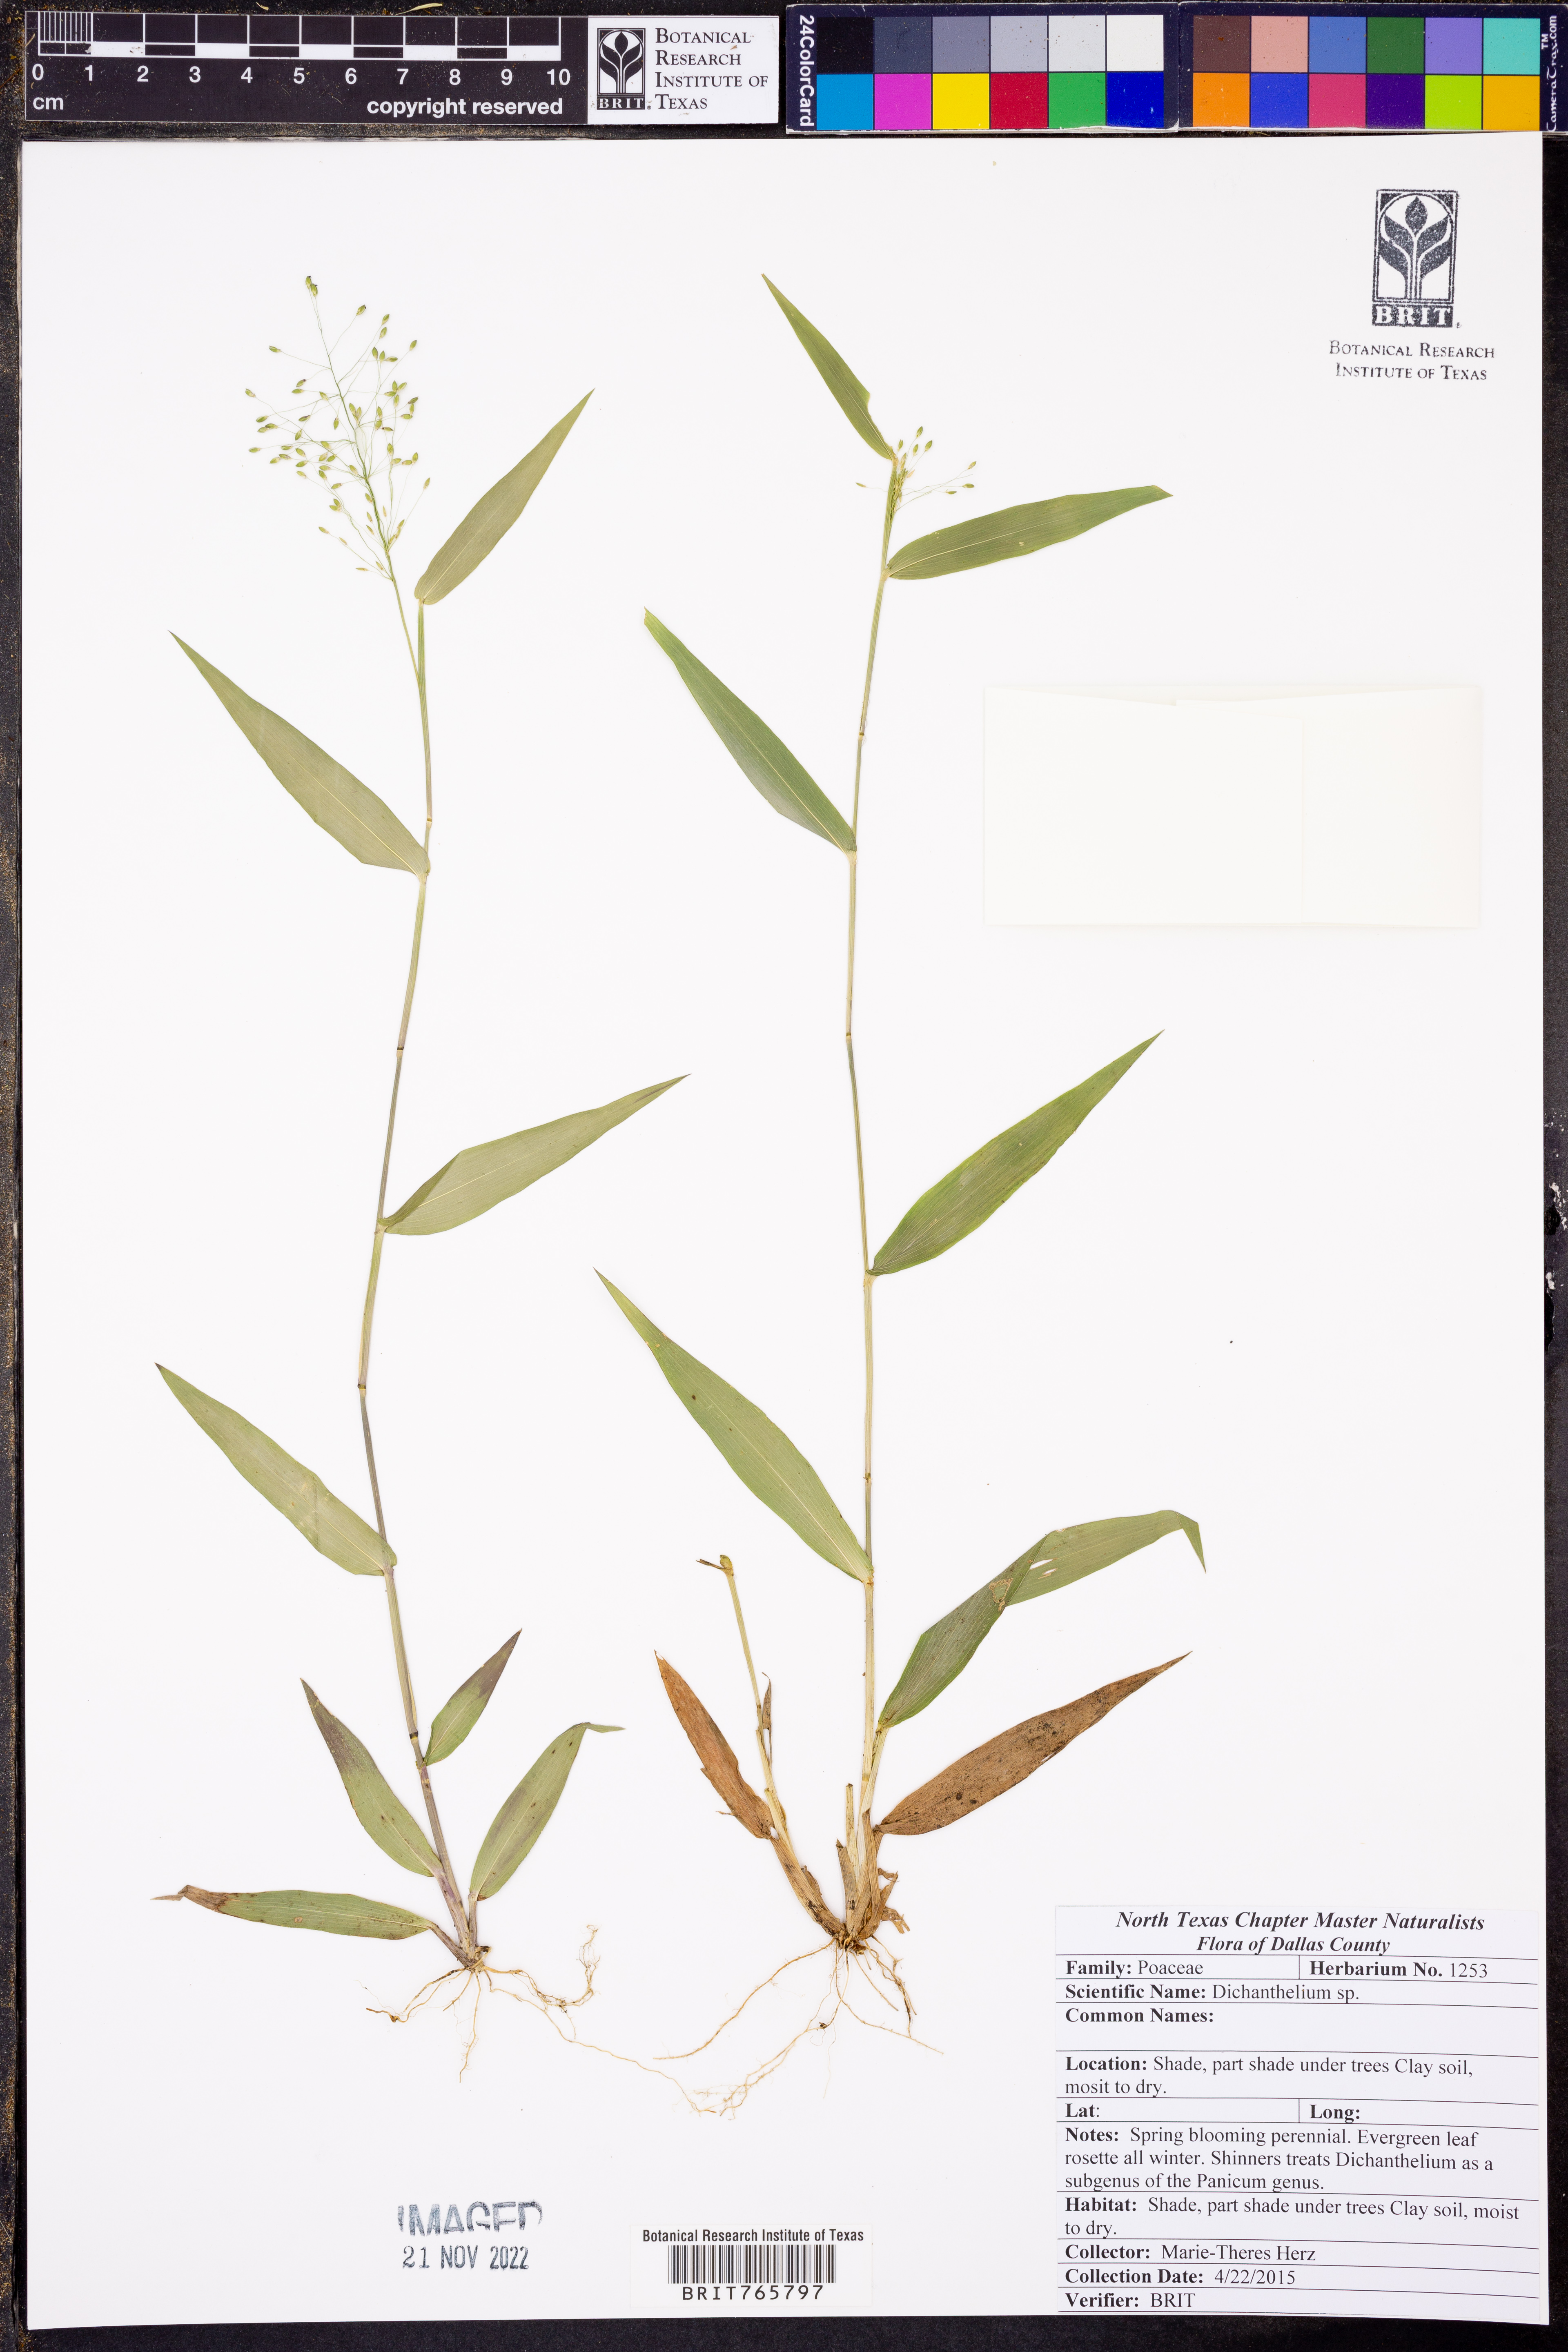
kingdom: Plantae
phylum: Tracheophyta
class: Liliopsida
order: Poales
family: Poaceae
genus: Dichanthelium
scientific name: Dichanthelium
